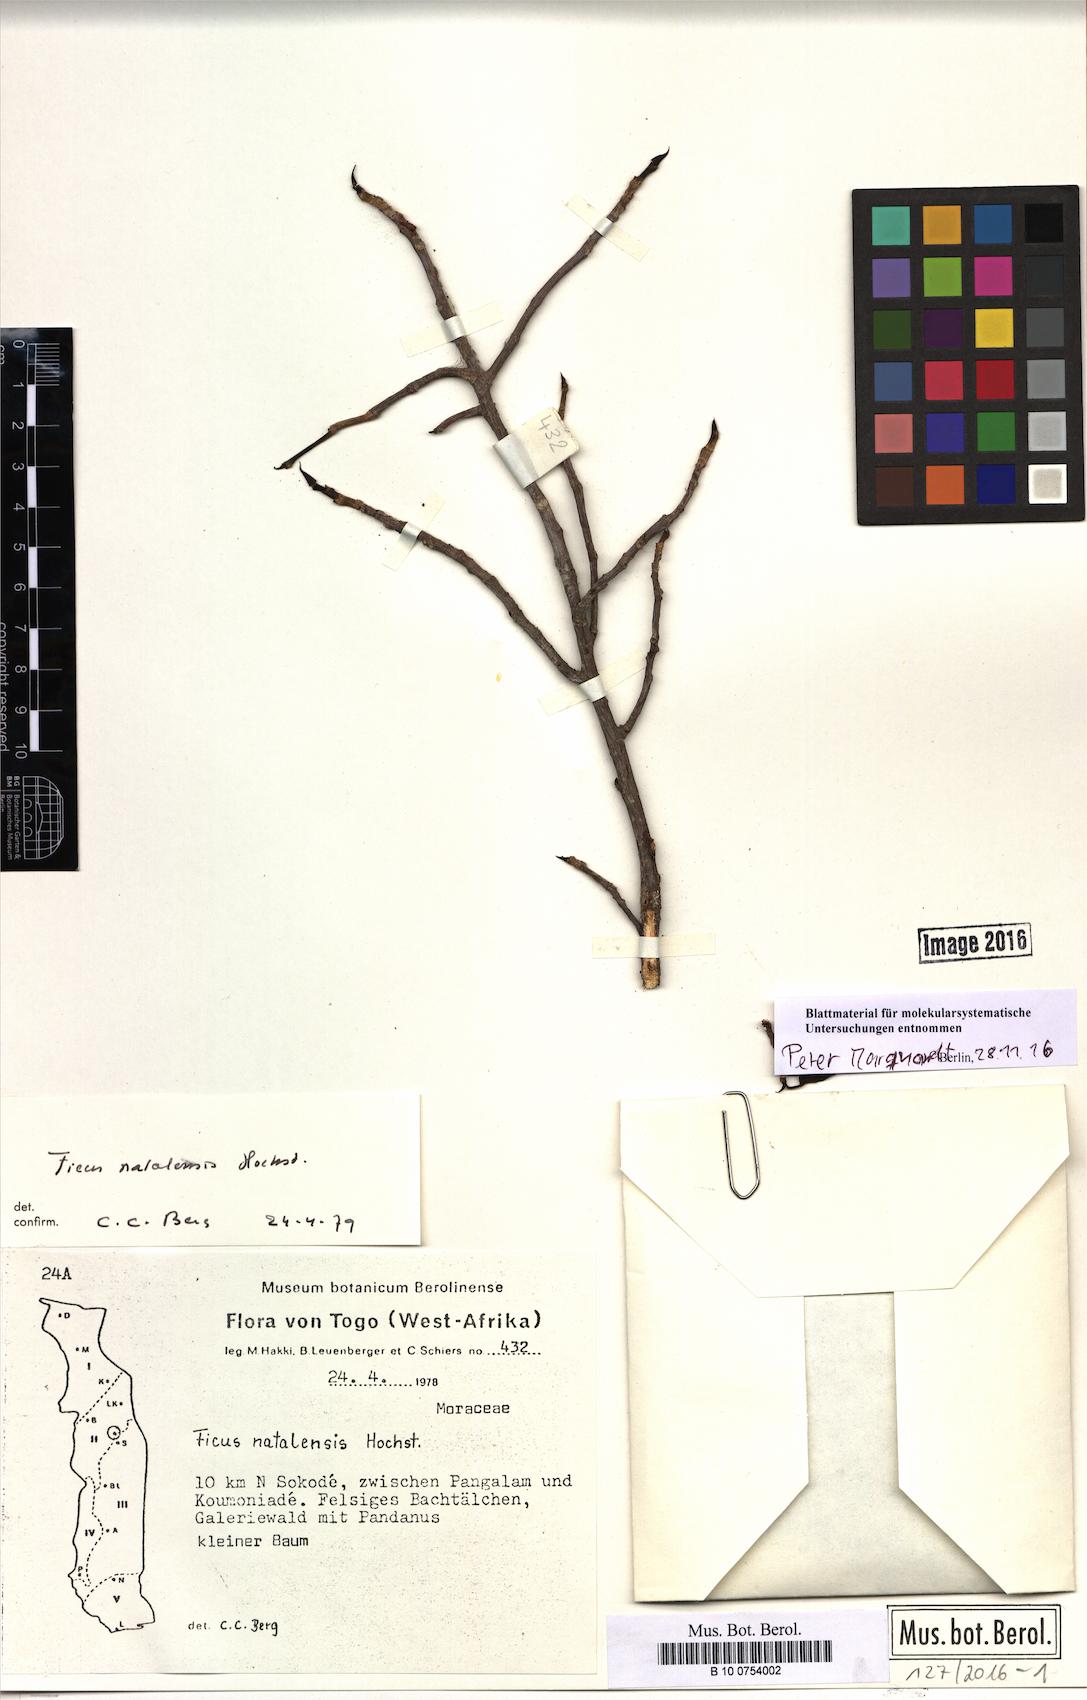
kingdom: Plantae
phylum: Tracheophyta
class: Magnoliopsida
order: Rosales
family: Moraceae
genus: Ficus
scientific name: Ficus natalensis
